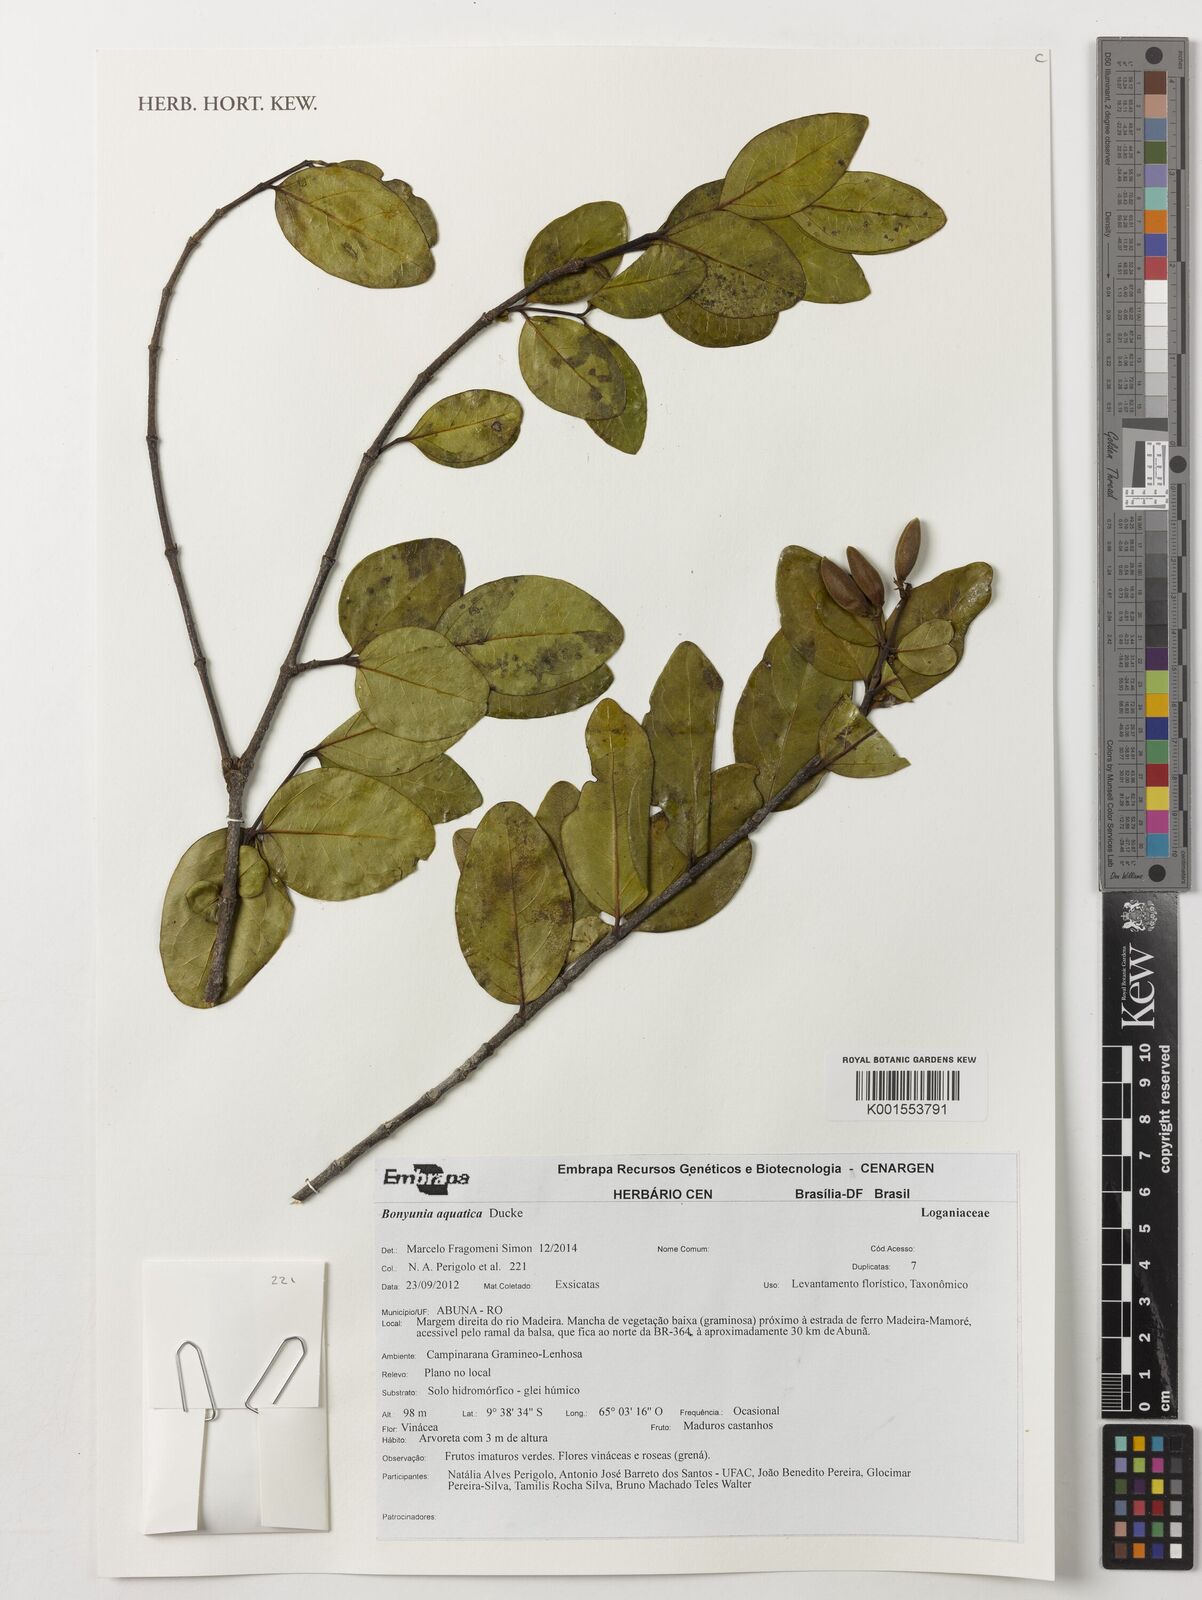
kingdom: Plantae
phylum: Tracheophyta
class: Magnoliopsida
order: Gentianales
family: Loganiaceae
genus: Bonyunia
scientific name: Bonyunia aquatica
